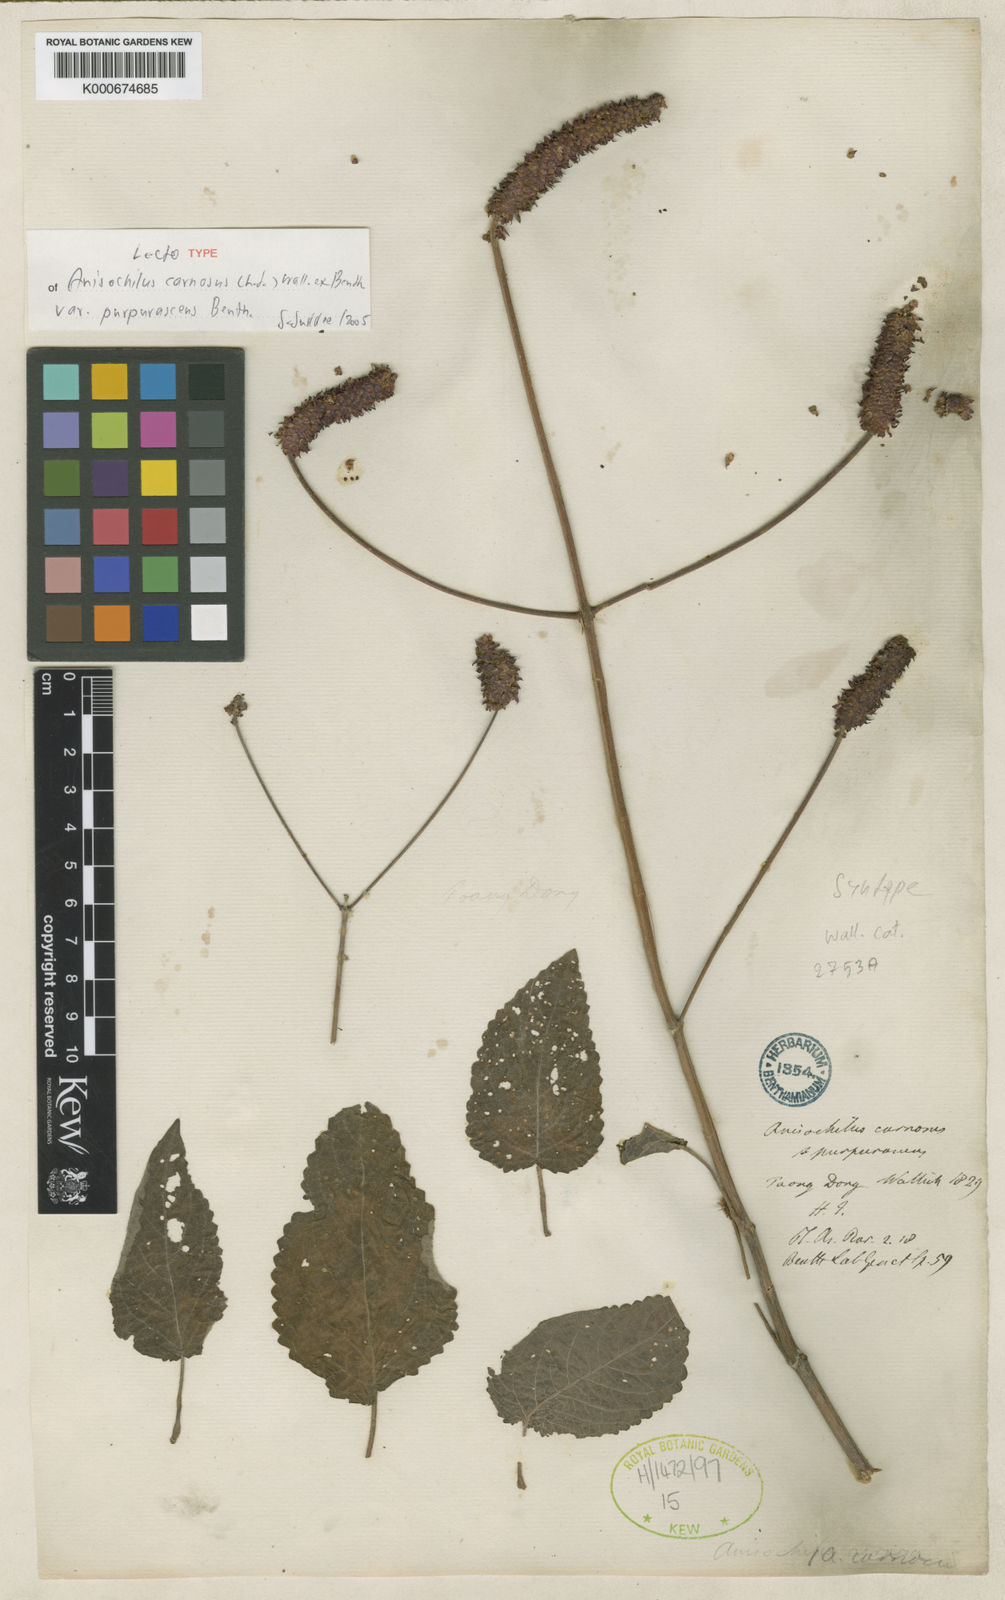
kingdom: Plantae
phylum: Tracheophyta
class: Magnoliopsida
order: Lamiales
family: Lamiaceae
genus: Anisochilus
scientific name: Anisochilus
